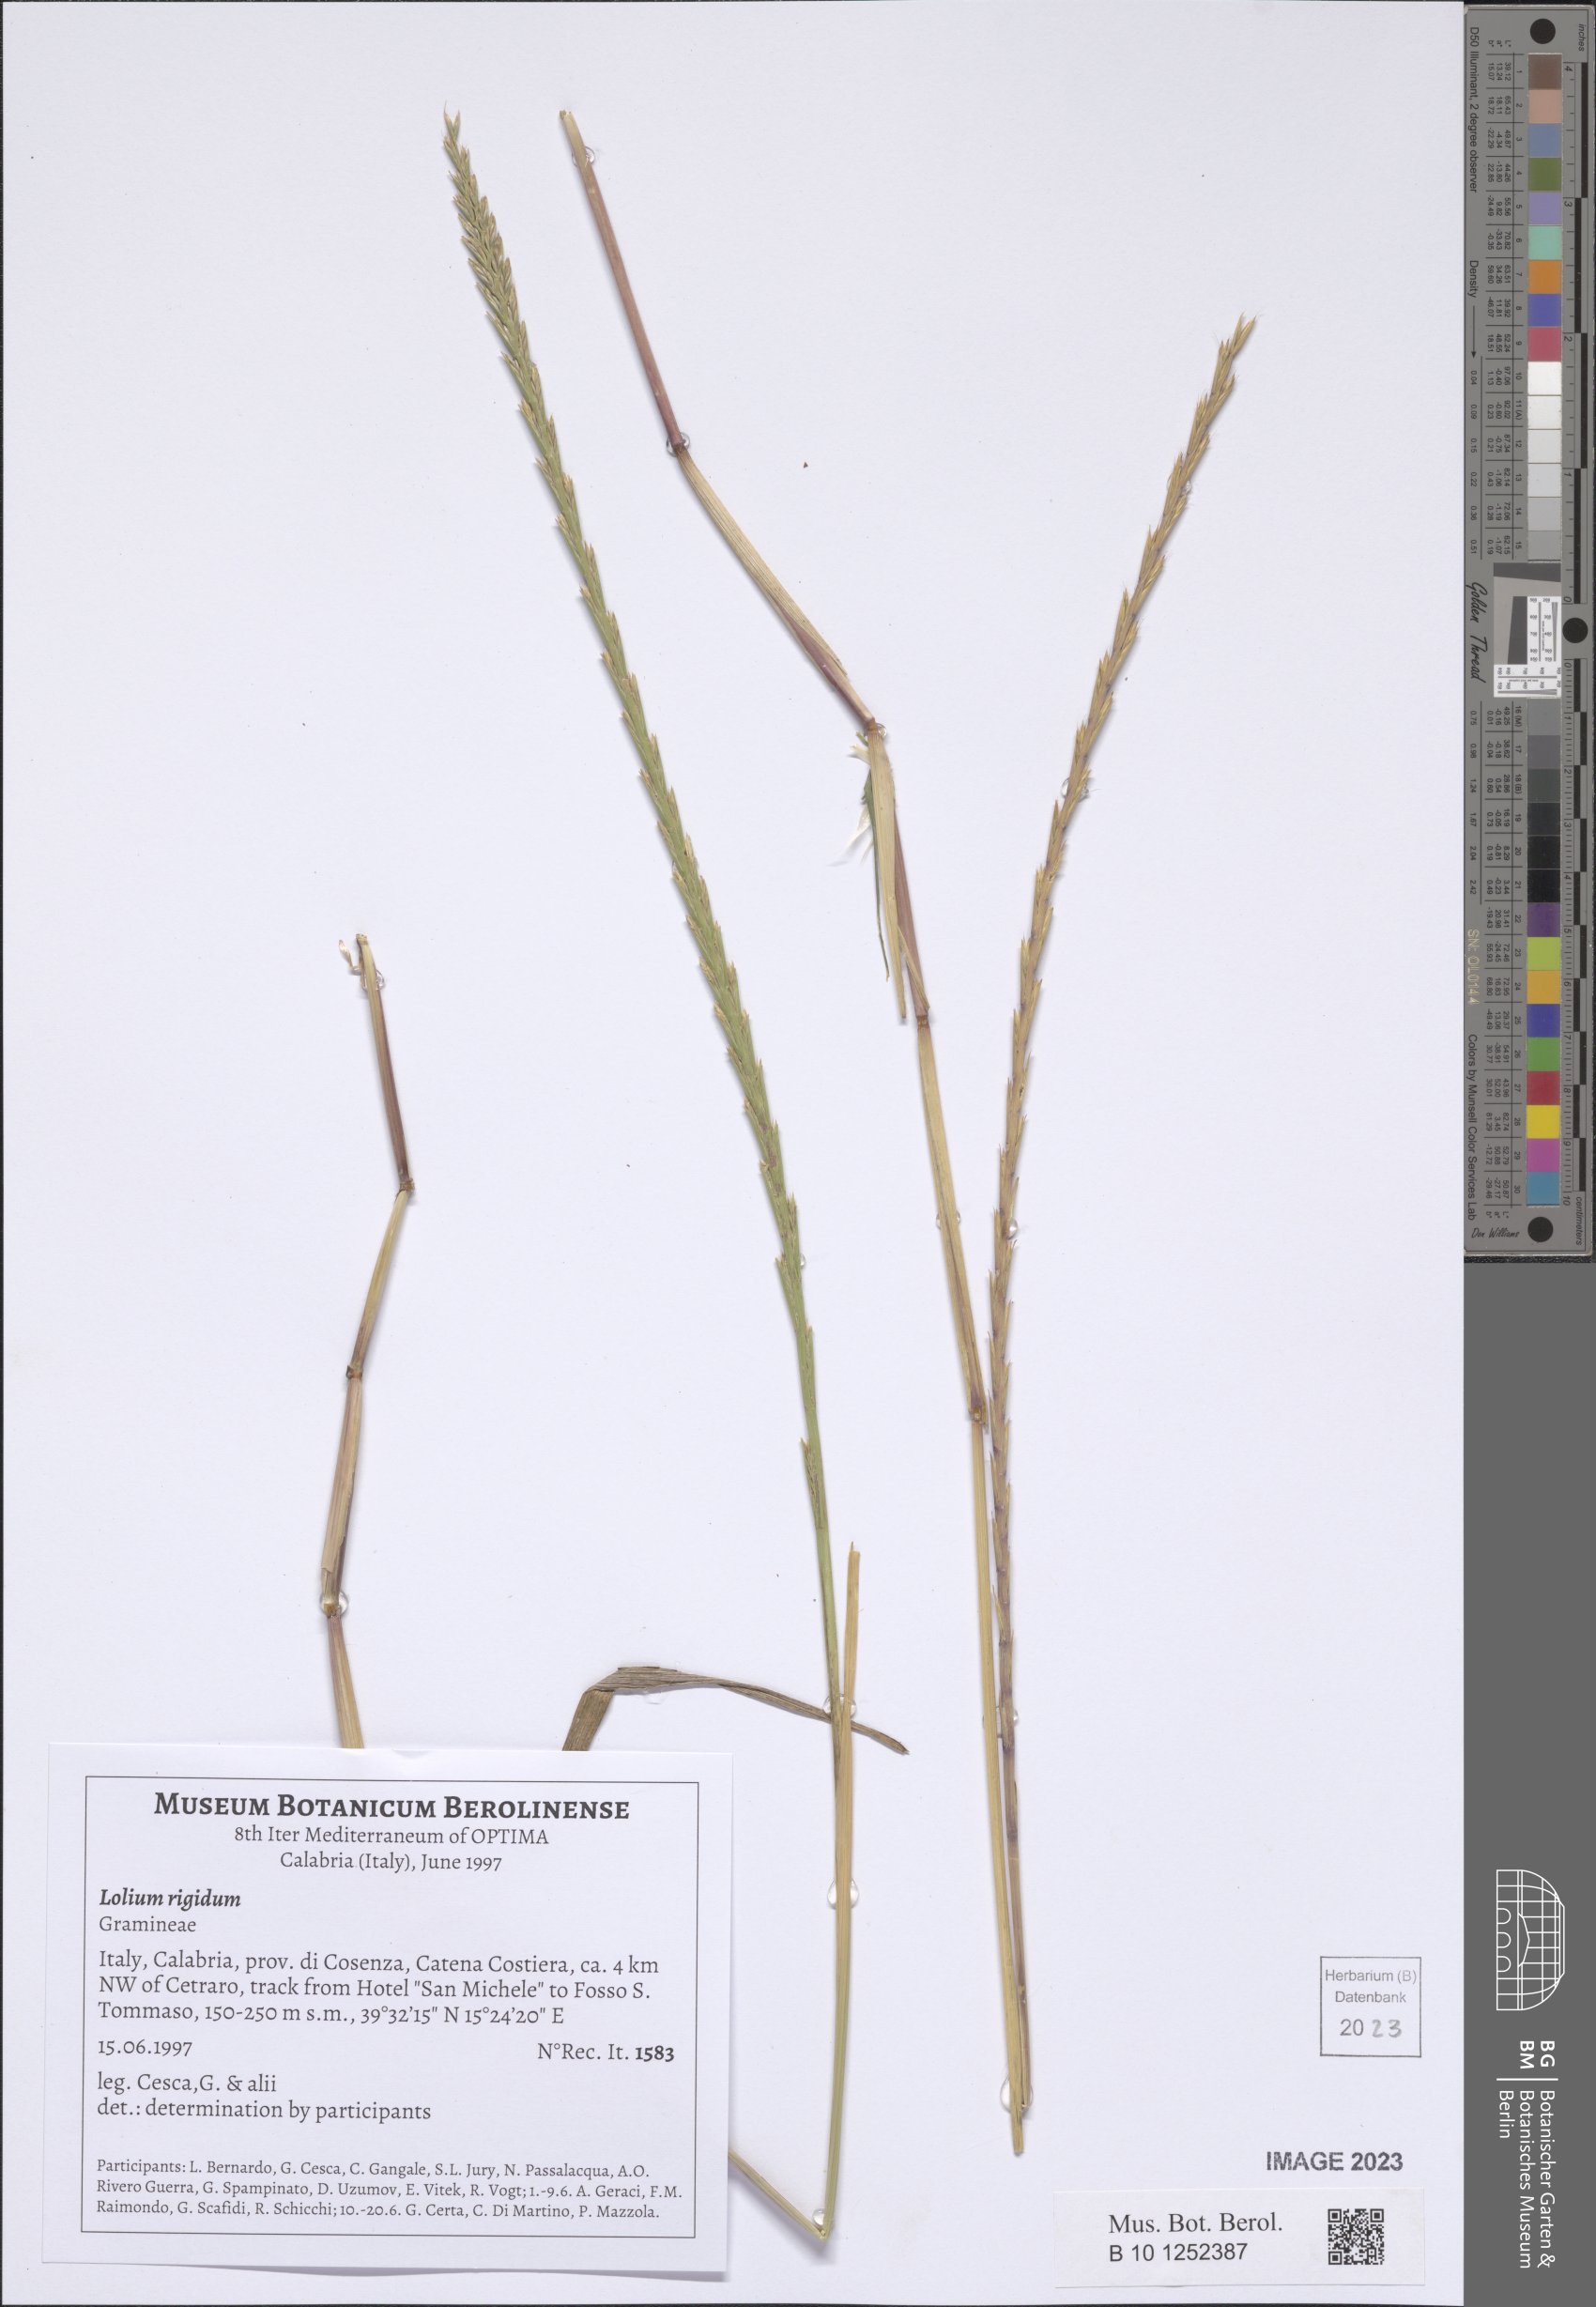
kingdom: Plantae
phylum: Tracheophyta
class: Liliopsida
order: Poales
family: Poaceae
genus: Lolium
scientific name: Lolium rigidum
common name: Wimmera ryegrass
